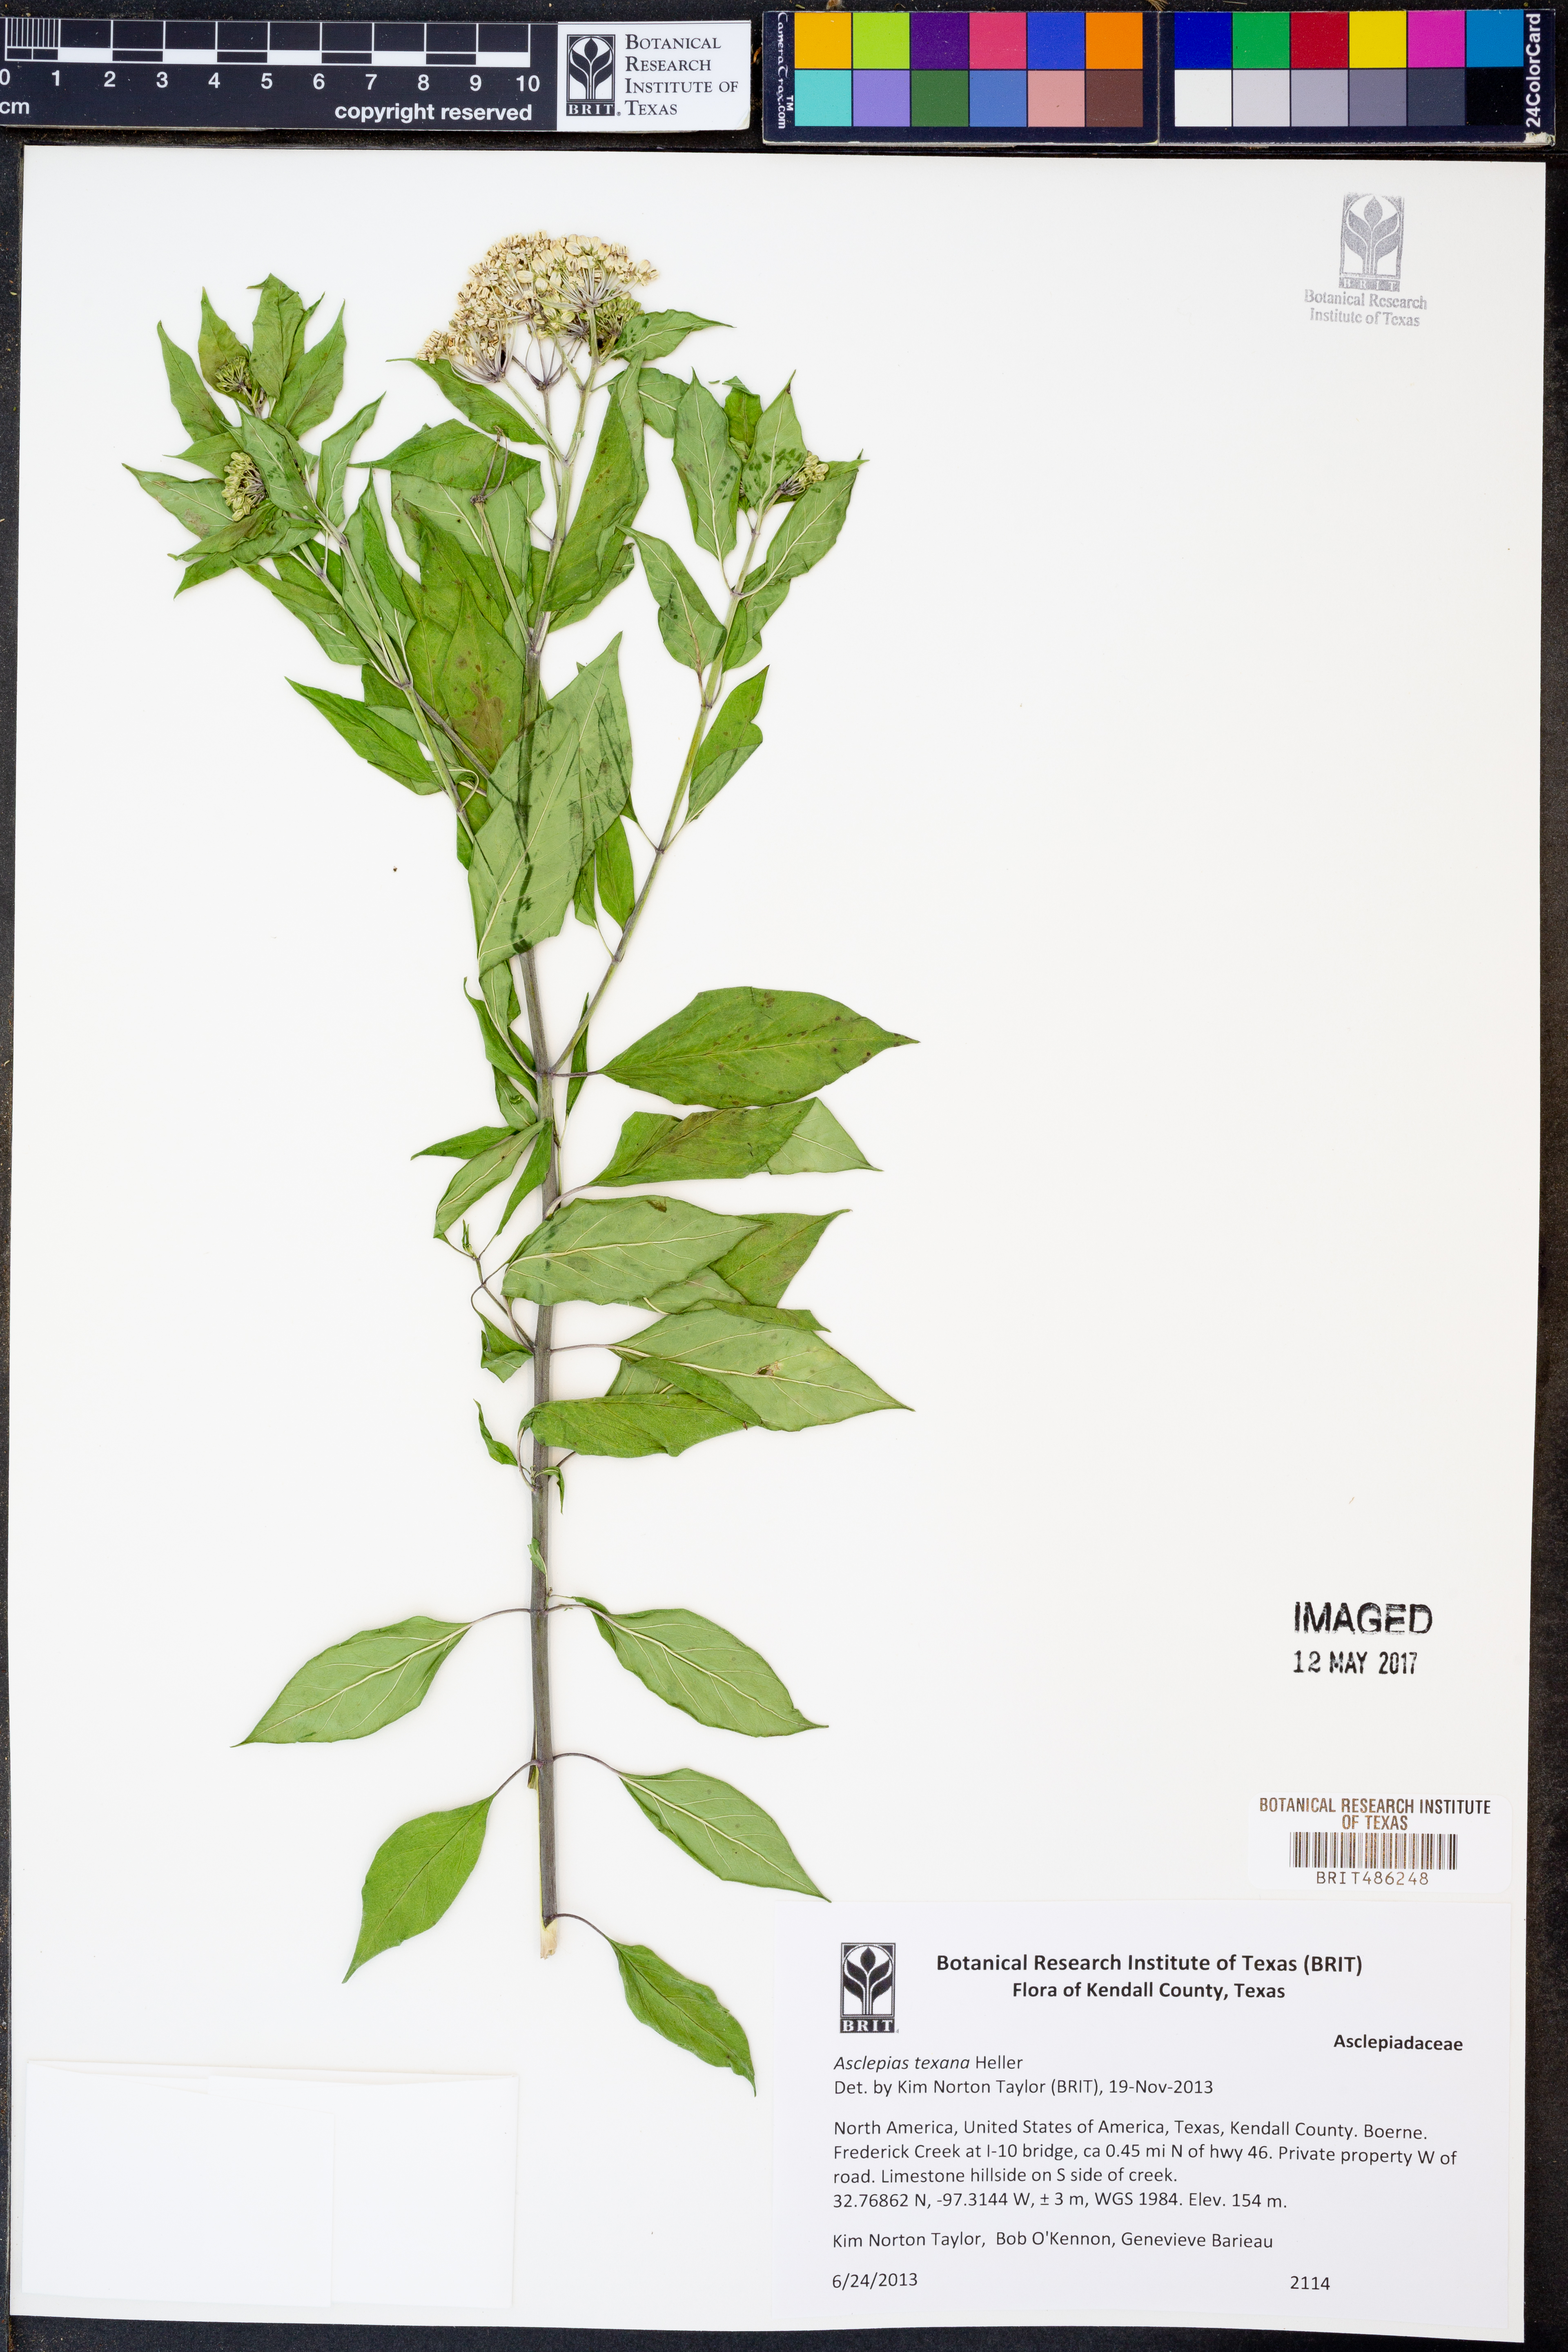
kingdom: Plantae
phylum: Tracheophyta
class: Magnoliopsida
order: Gentianales
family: Apocynaceae
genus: Asclepias
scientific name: Asclepias texana
